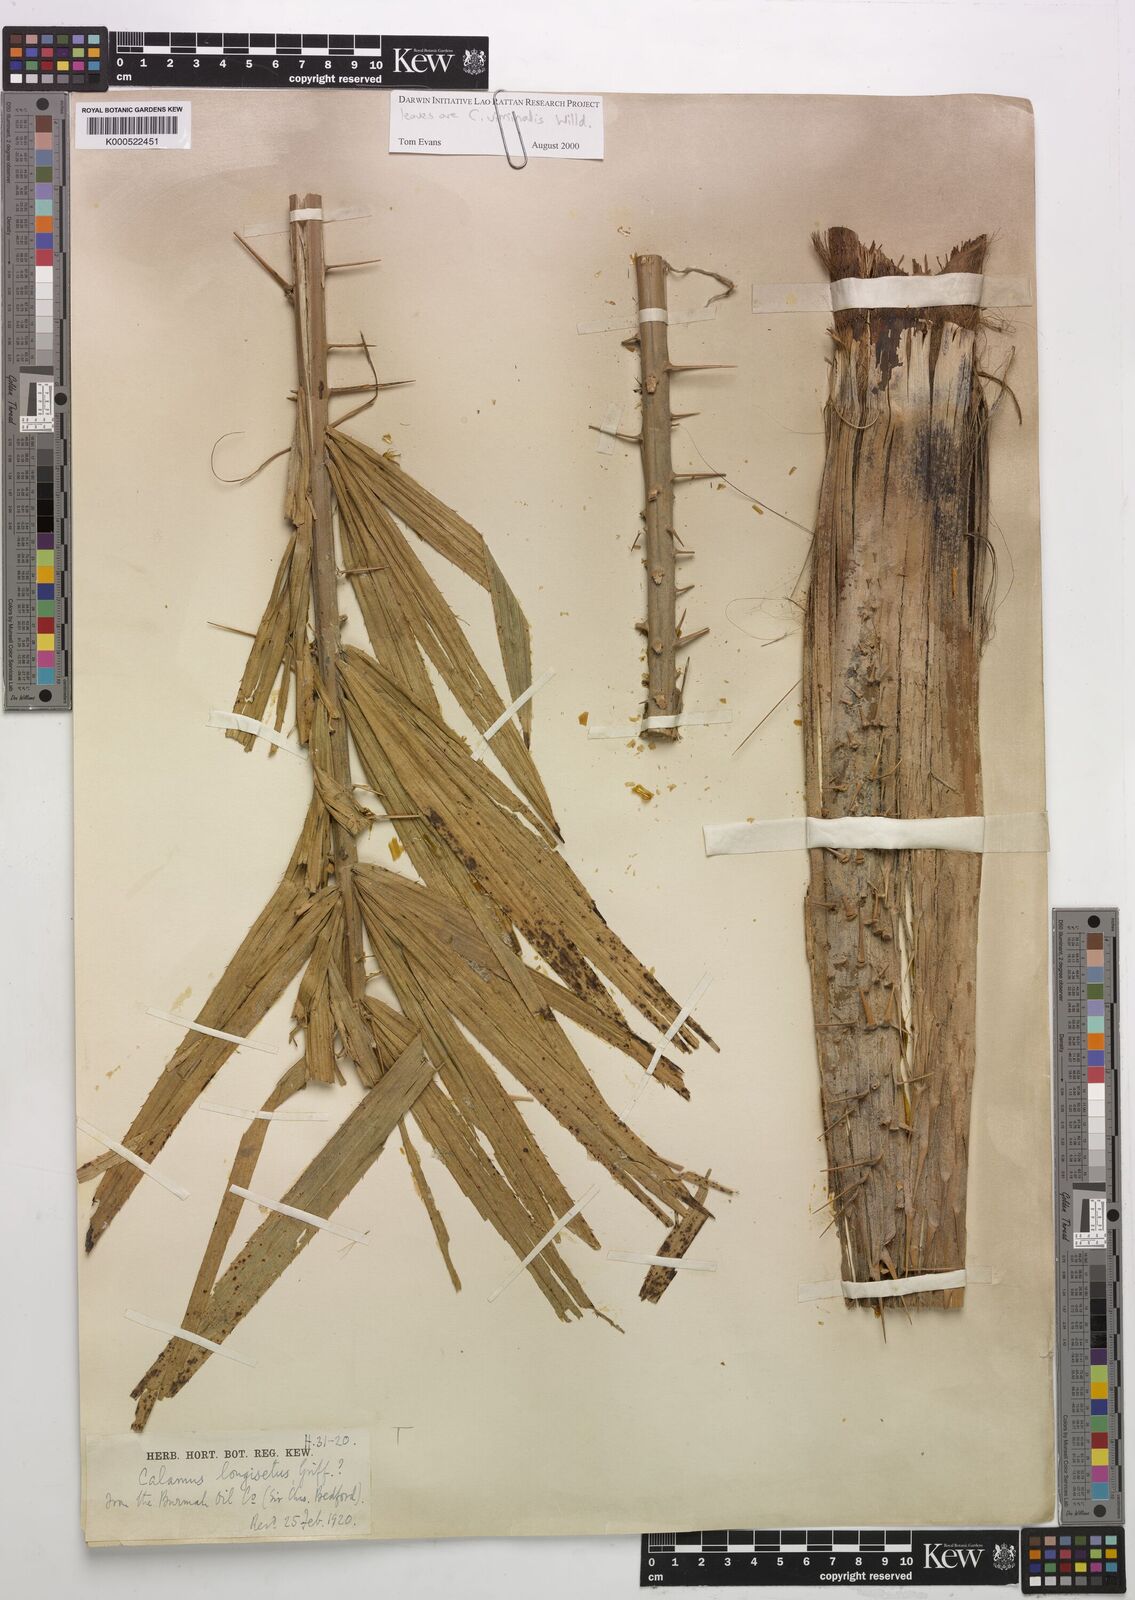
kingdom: Plantae
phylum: Tracheophyta
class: Liliopsida
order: Arecales
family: Arecaceae
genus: Calamus
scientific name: Calamus longisetus
